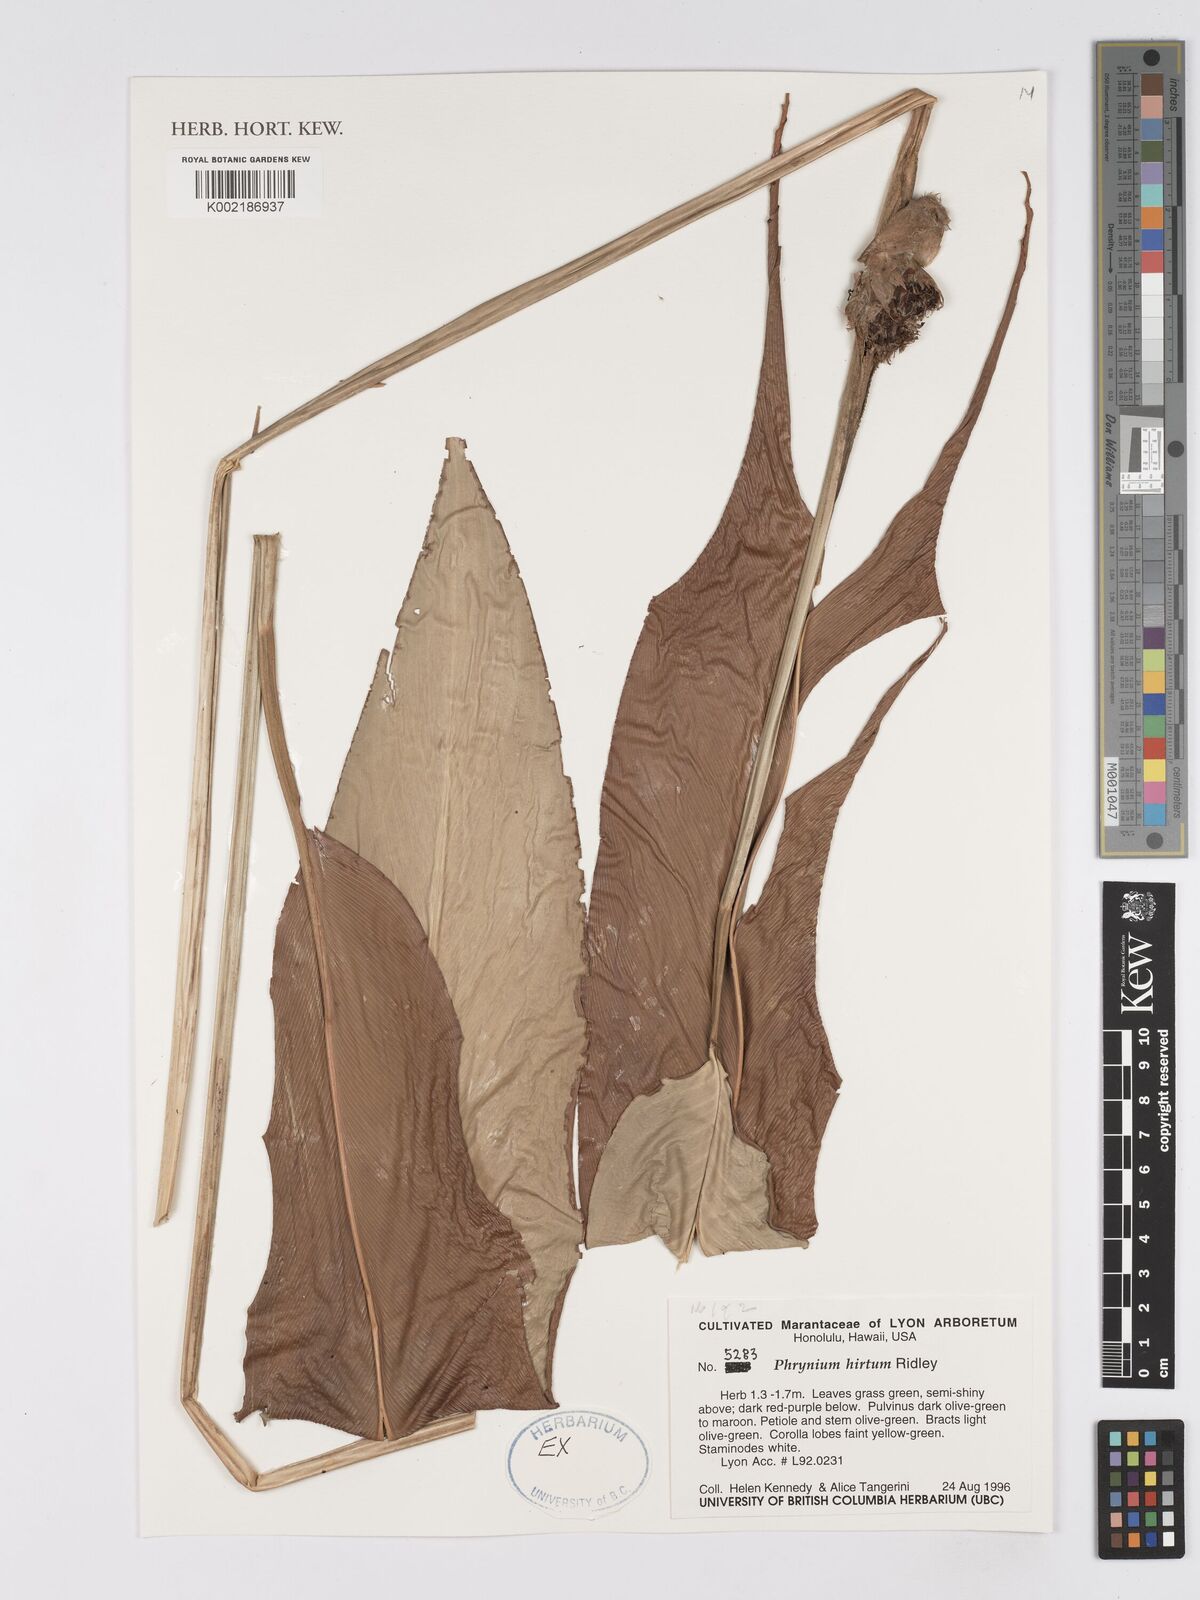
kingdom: Plantae
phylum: Tracheophyta
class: Liliopsida
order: Zingiberales
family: Marantaceae
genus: Phrynium
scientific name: Phrynium hirtum
